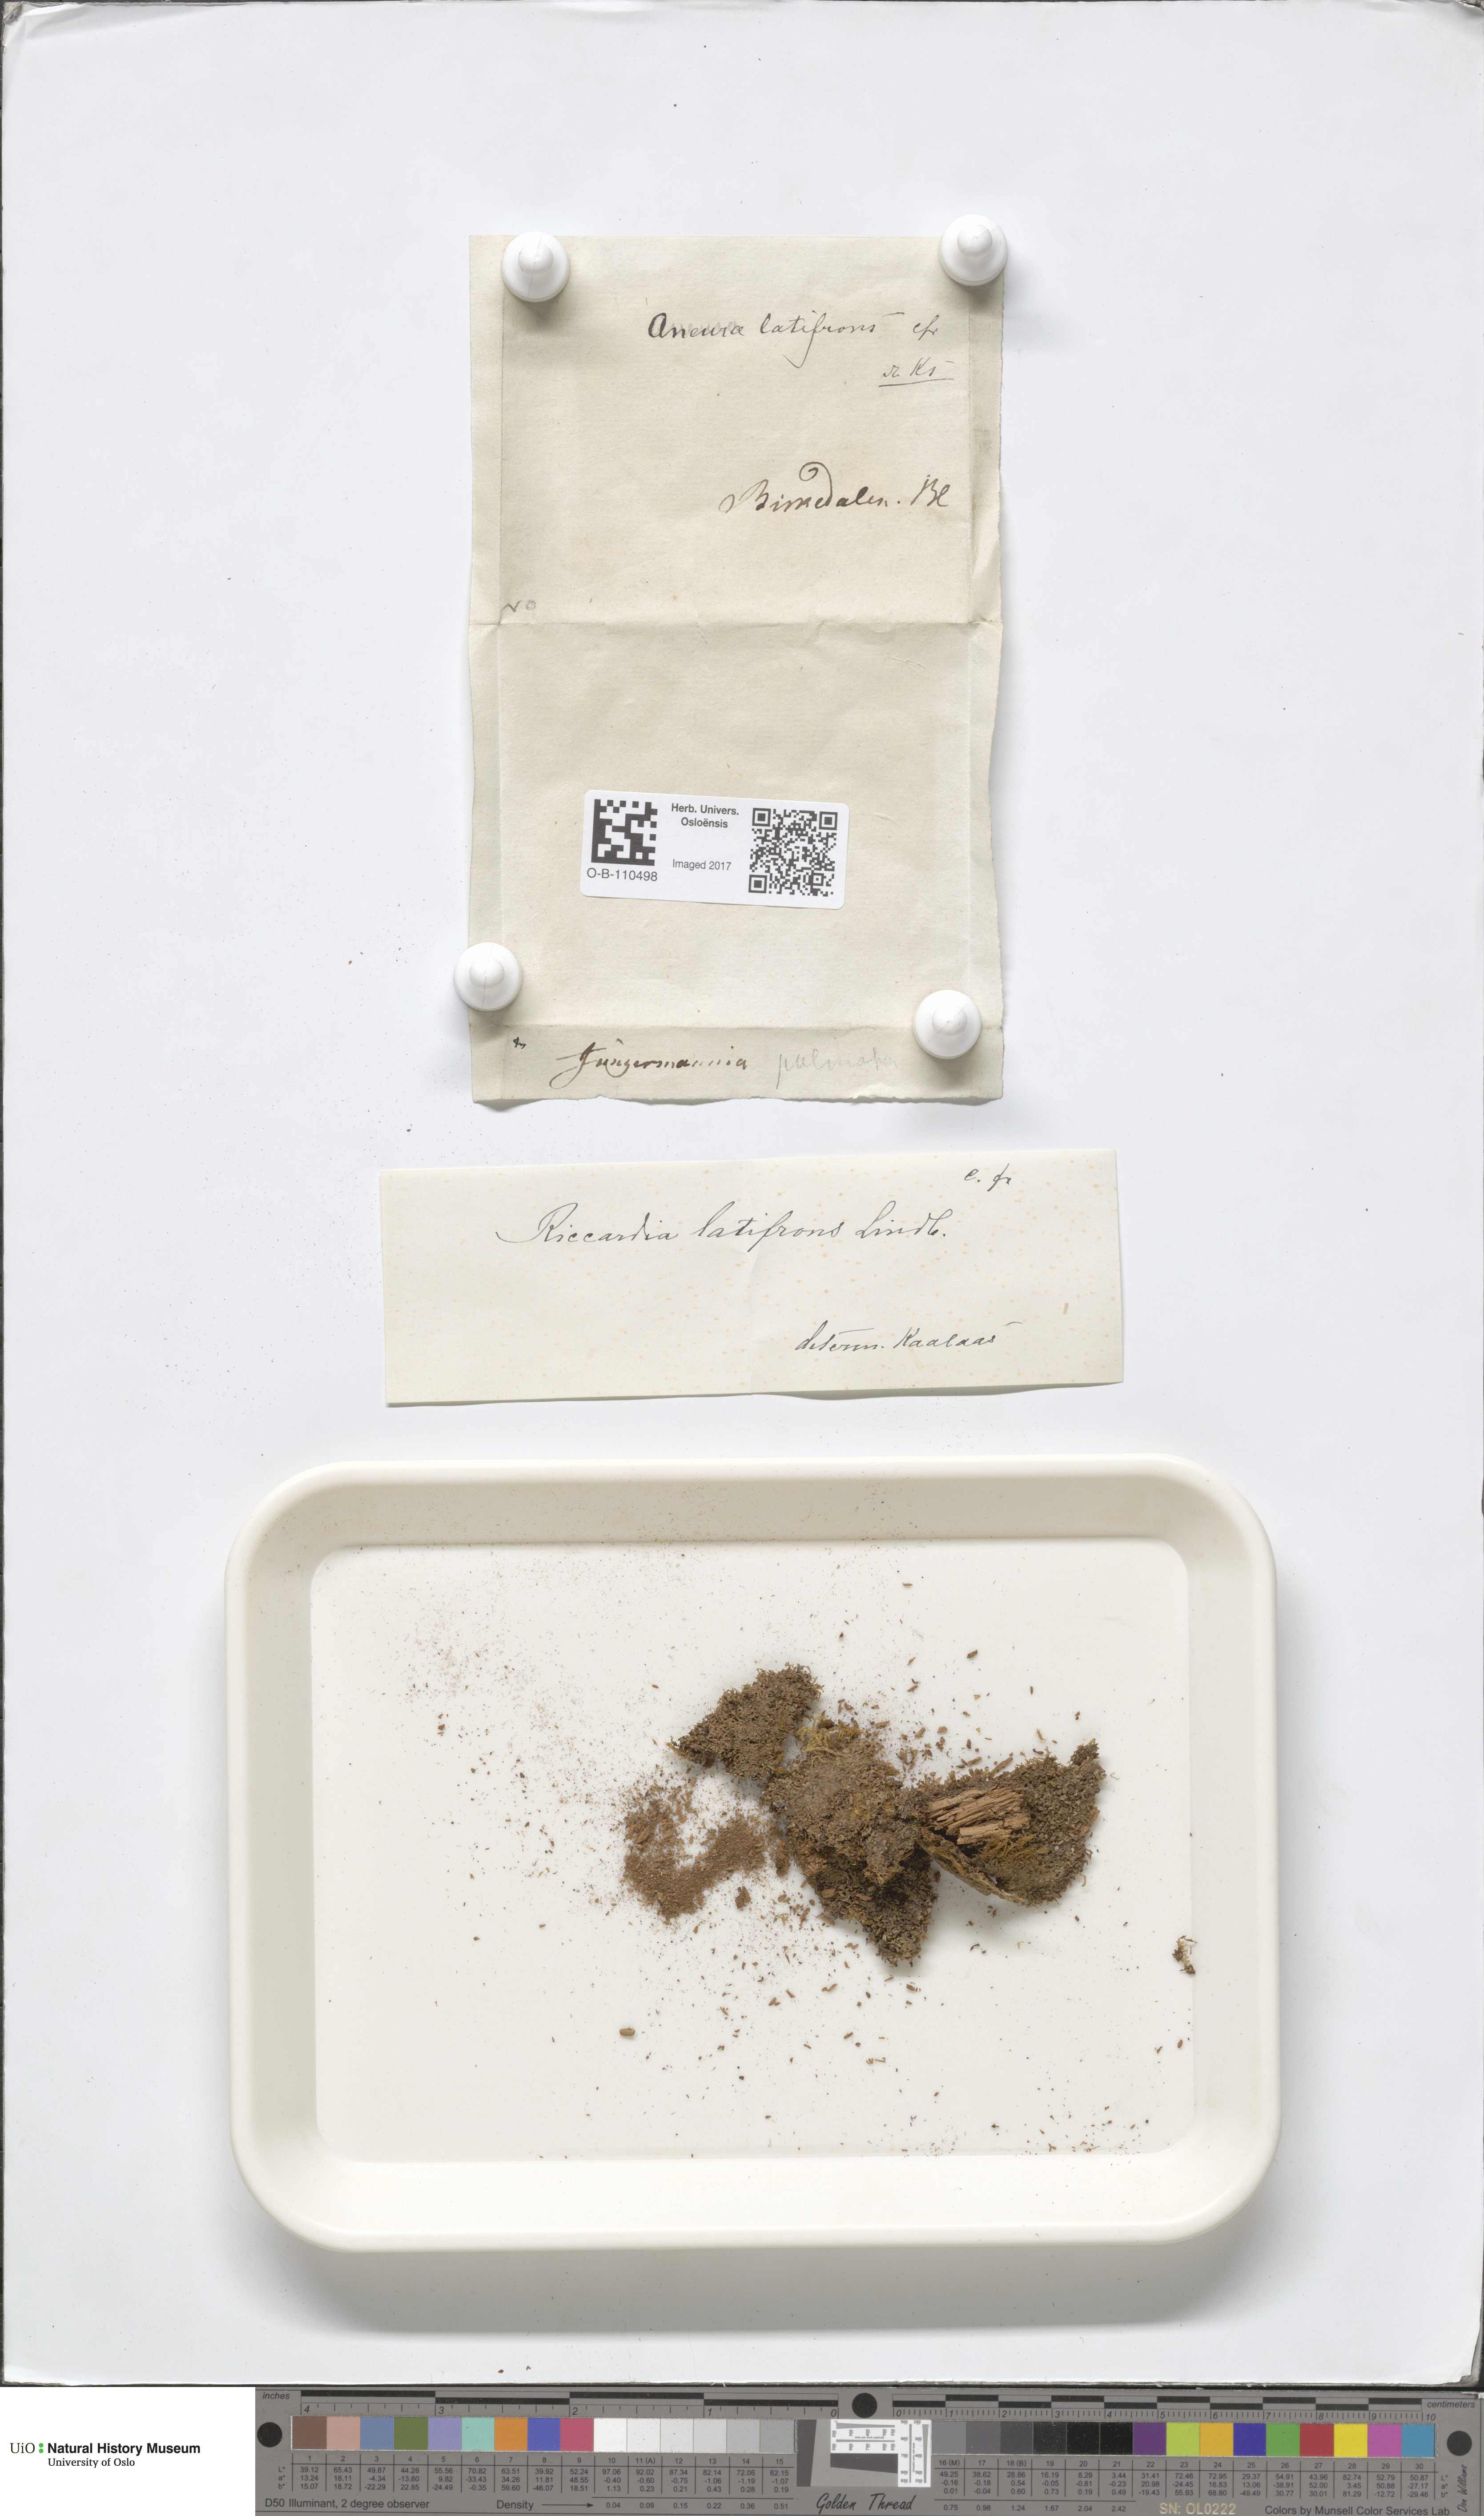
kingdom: Plantae
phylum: Marchantiophyta
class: Jungermanniopsida
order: Metzgeriales
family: Aneuraceae
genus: Riccardia
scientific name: Riccardia latifrons
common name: Bog germanderwort
